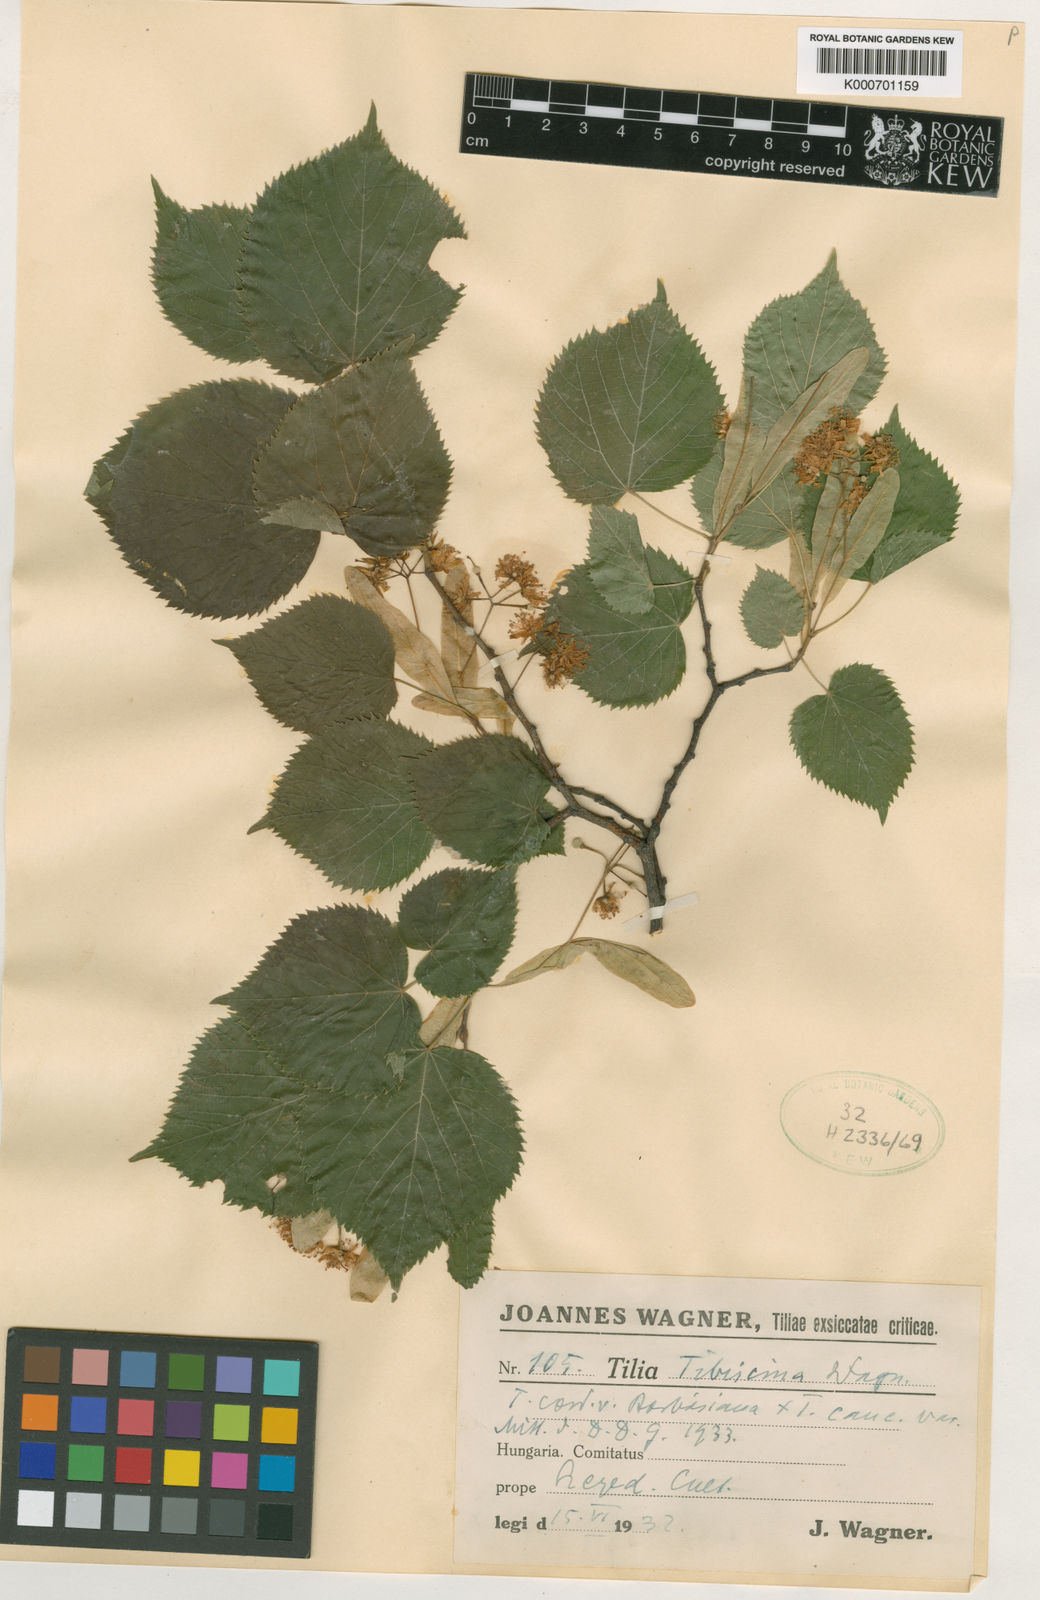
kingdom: Plantae
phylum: Tracheophyta
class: Magnoliopsida
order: Malvales
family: Malvaceae
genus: Tilia
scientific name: Tilia
